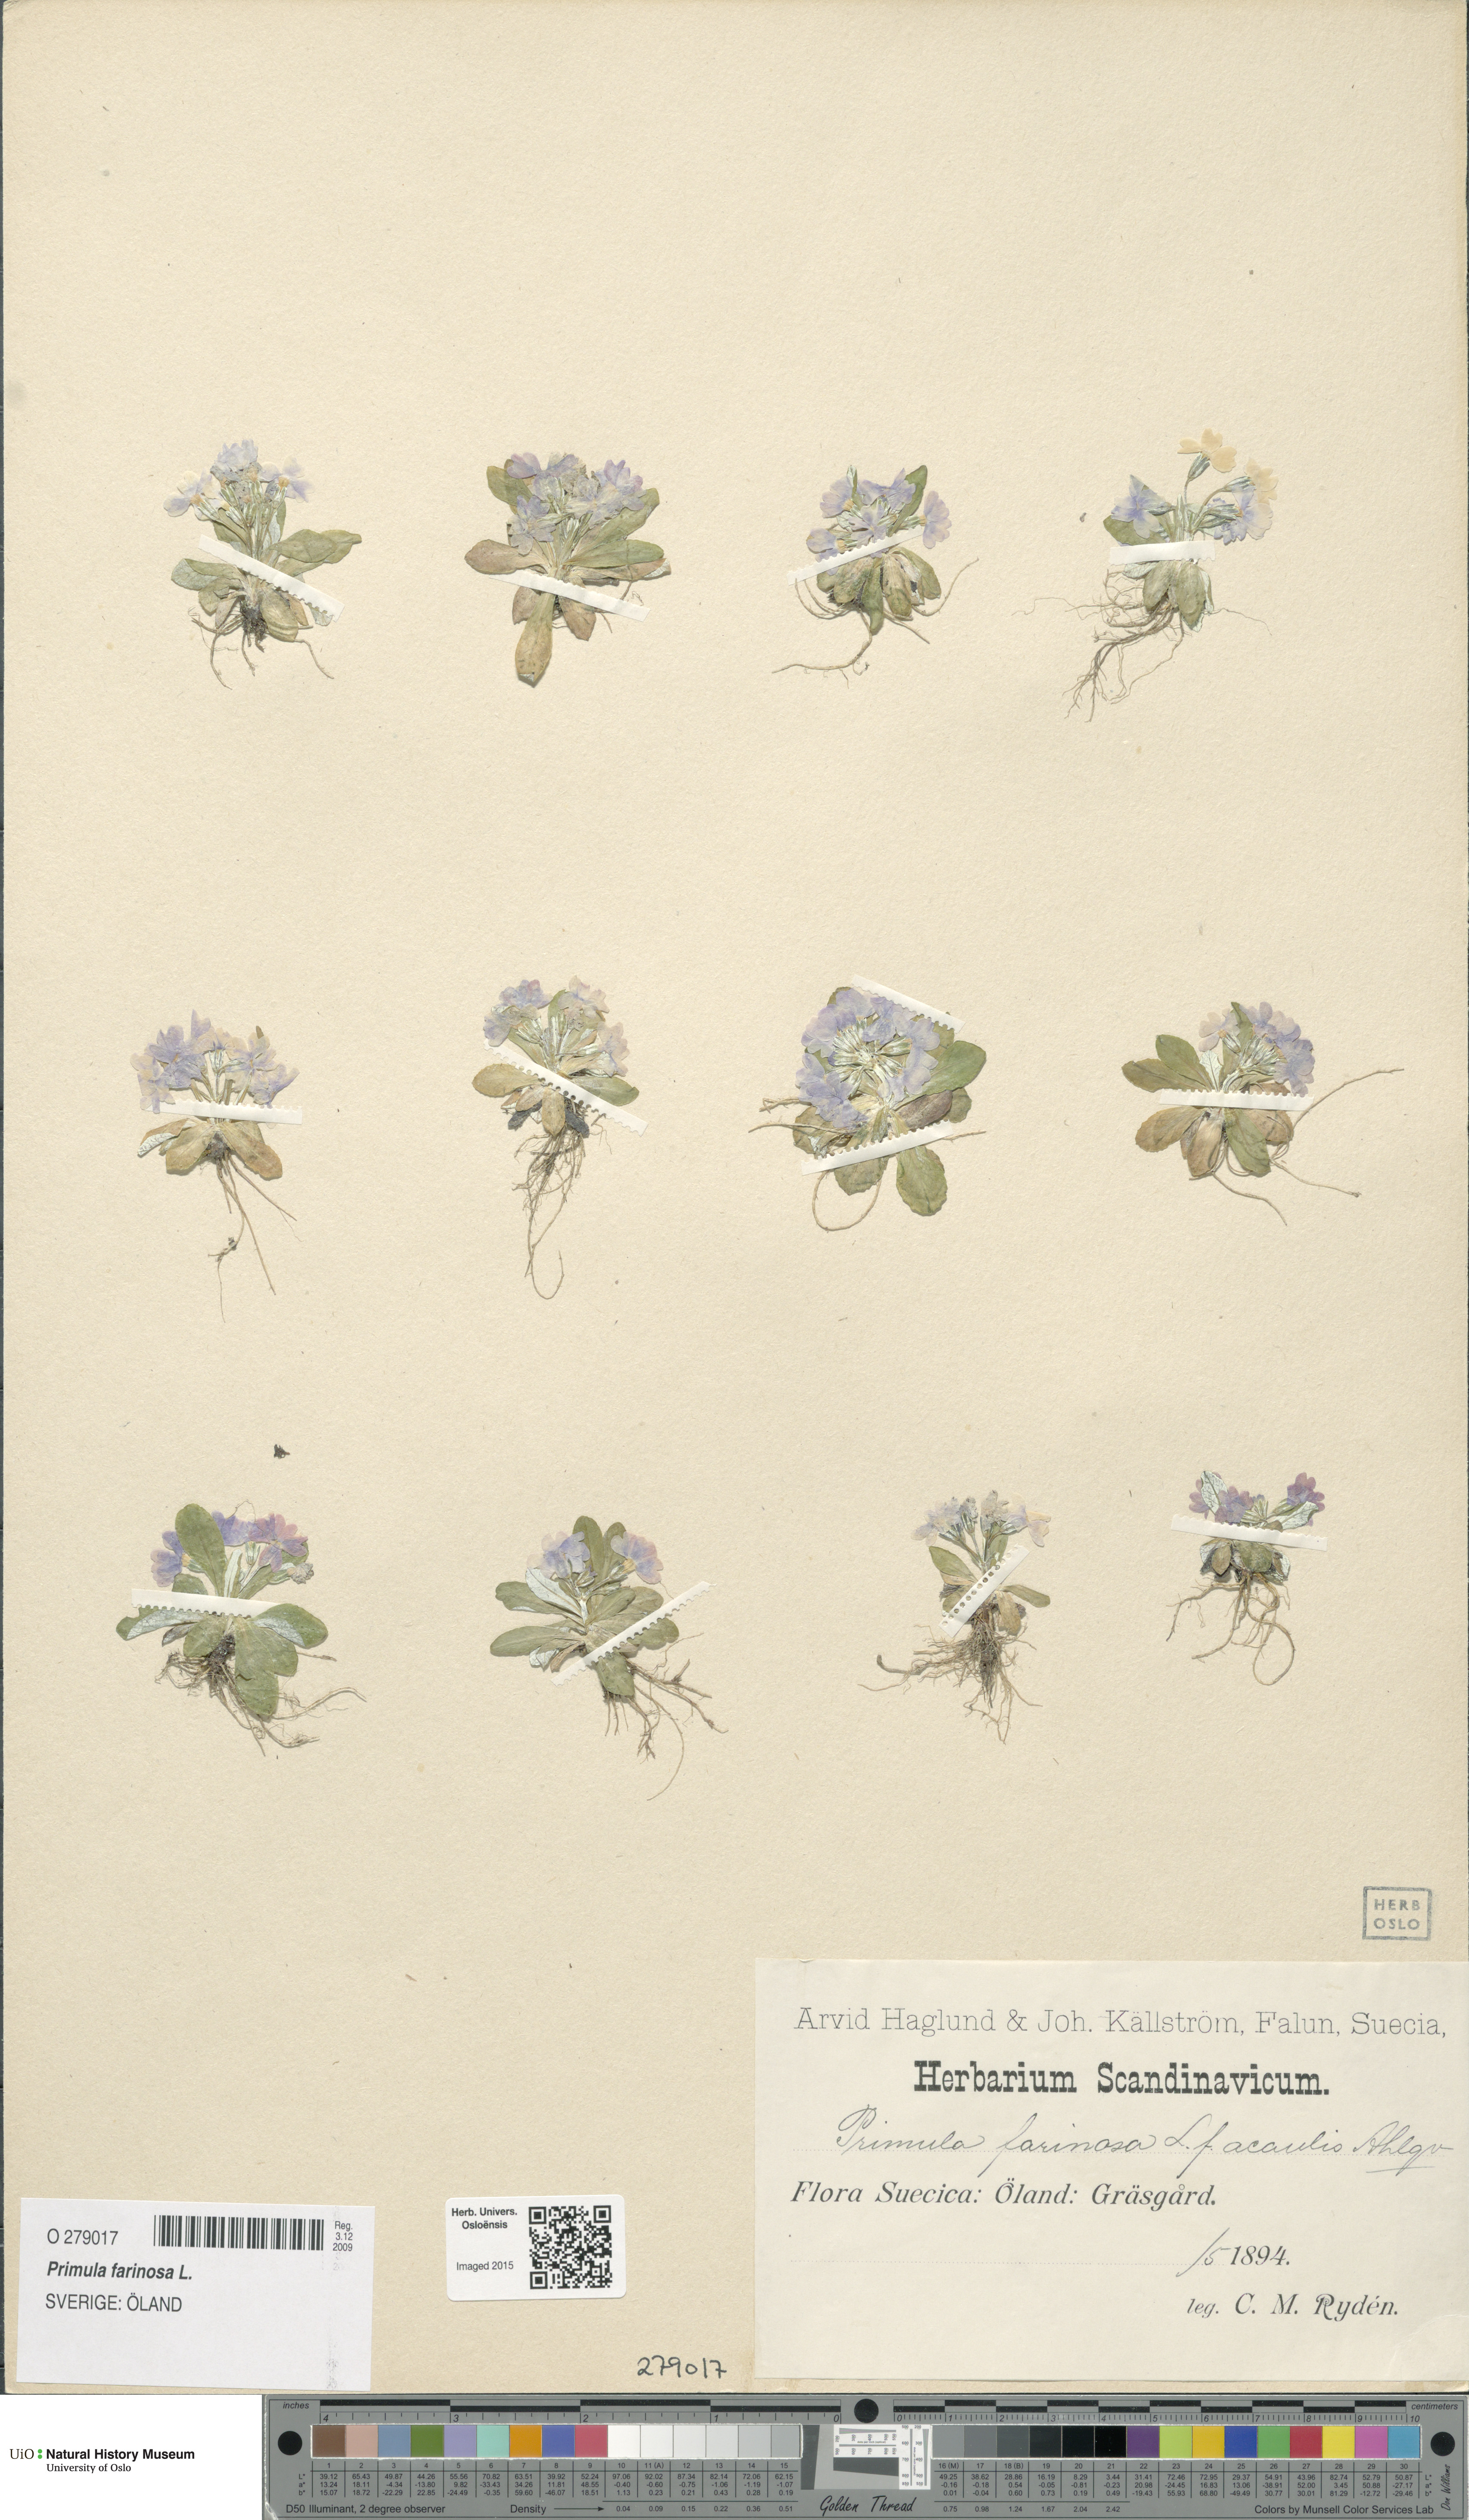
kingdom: Plantae
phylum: Tracheophyta
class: Magnoliopsida
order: Ericales
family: Primulaceae
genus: Primula
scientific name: Primula farinosa
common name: Bird's-eye primrose
